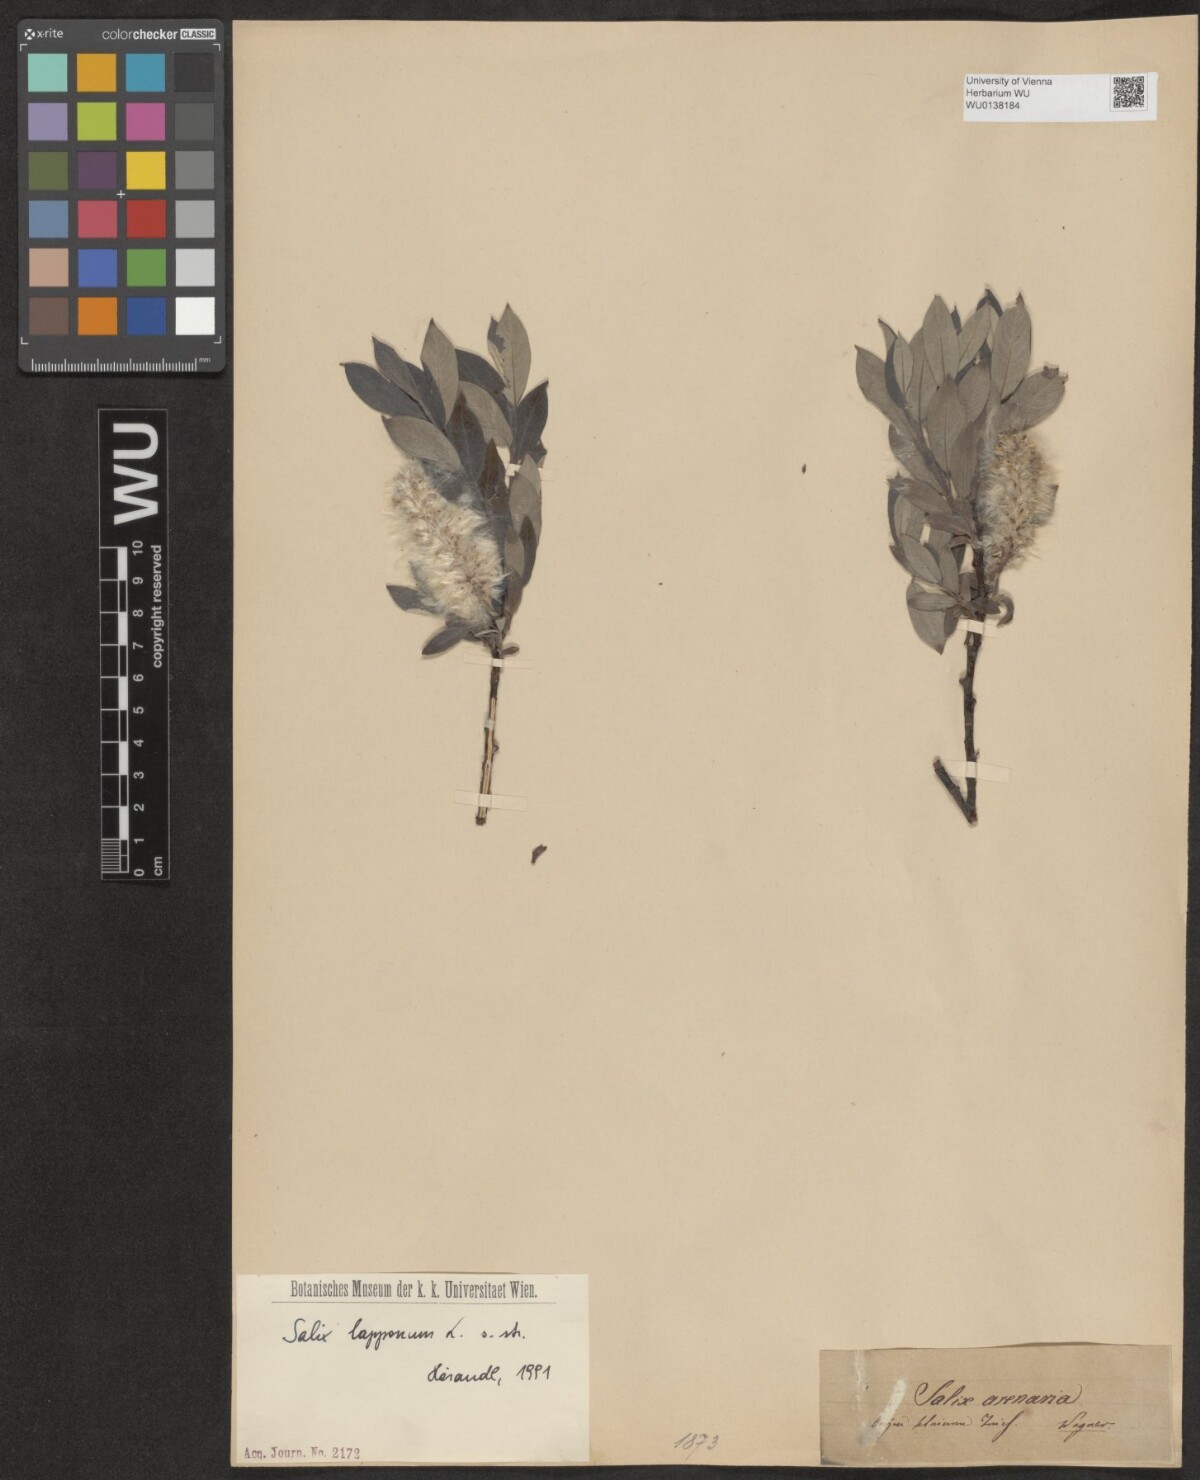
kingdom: Plantae
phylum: Tracheophyta
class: Magnoliopsida
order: Malpighiales
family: Salicaceae
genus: Salix
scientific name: Salix lapponum
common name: Downy willow
